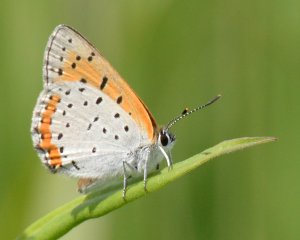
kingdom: Animalia
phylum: Arthropoda
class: Insecta
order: Lepidoptera
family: Sesiidae
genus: Sesia
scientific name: Sesia Lycaena hyllus
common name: Bronze Copper
